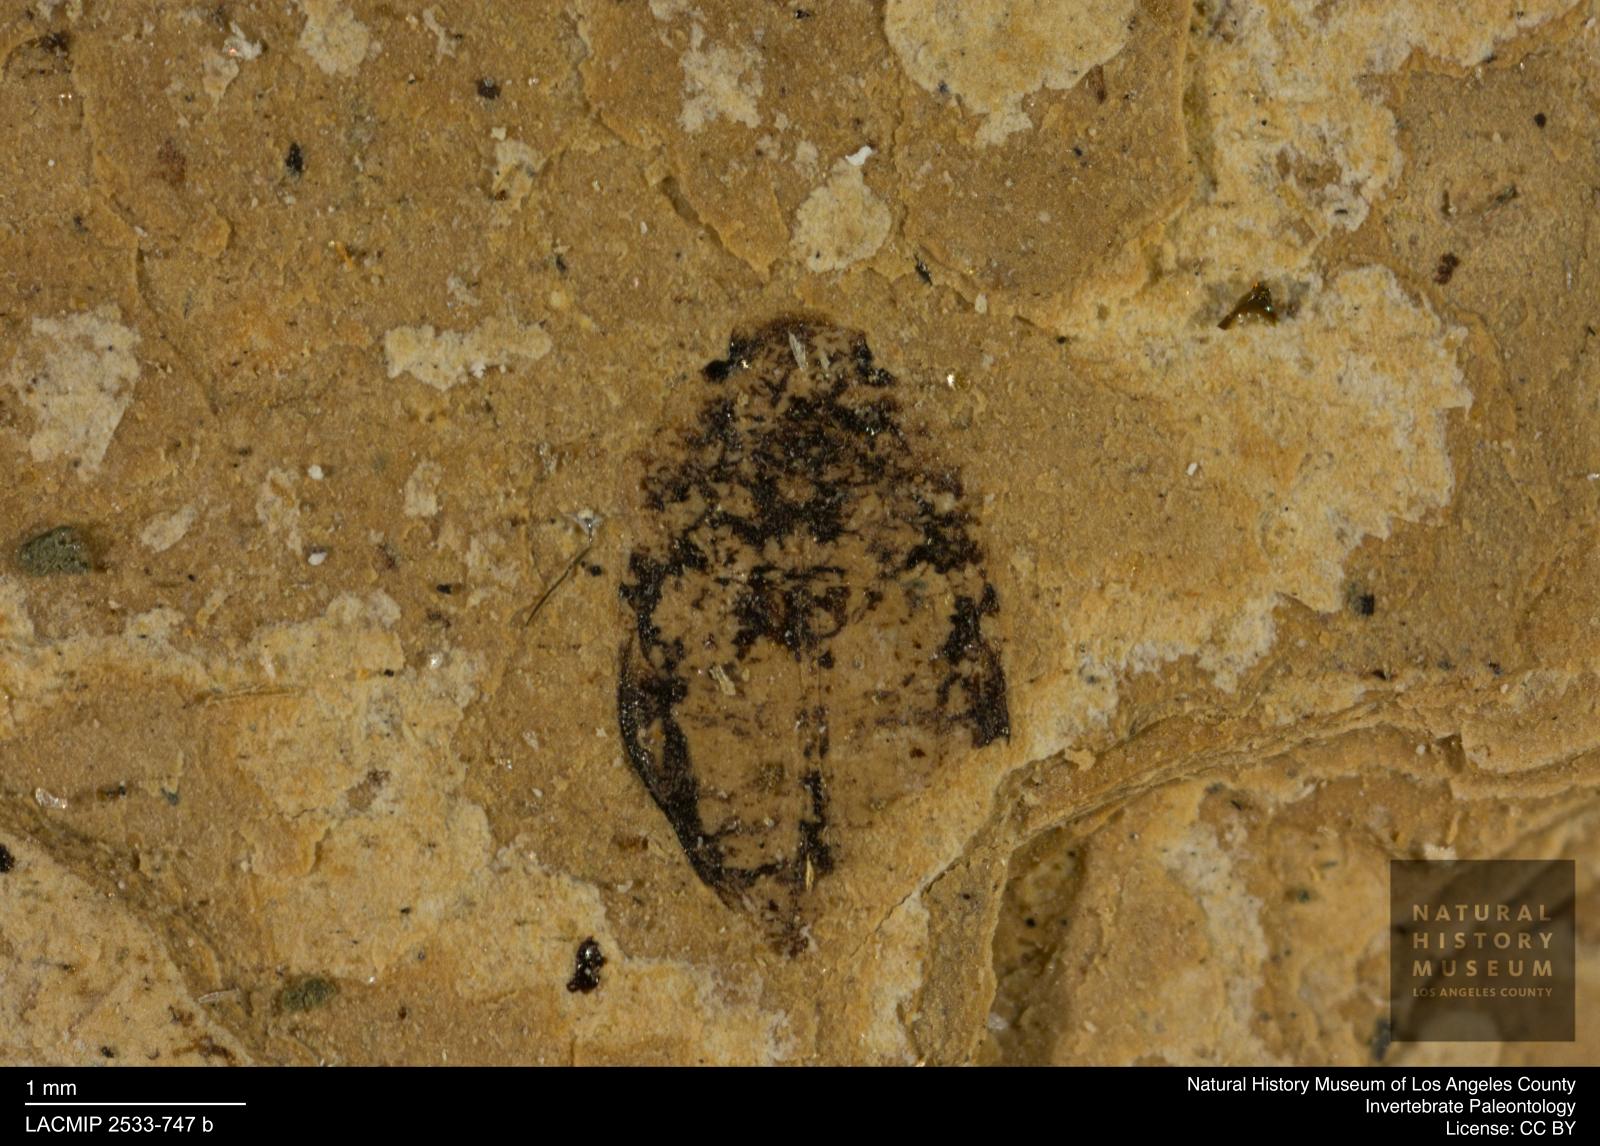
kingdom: Animalia
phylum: Arthropoda
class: Insecta
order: Coleoptera
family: Dytiscidae
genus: Oreodytes
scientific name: Oreodytes cryptolineatus
